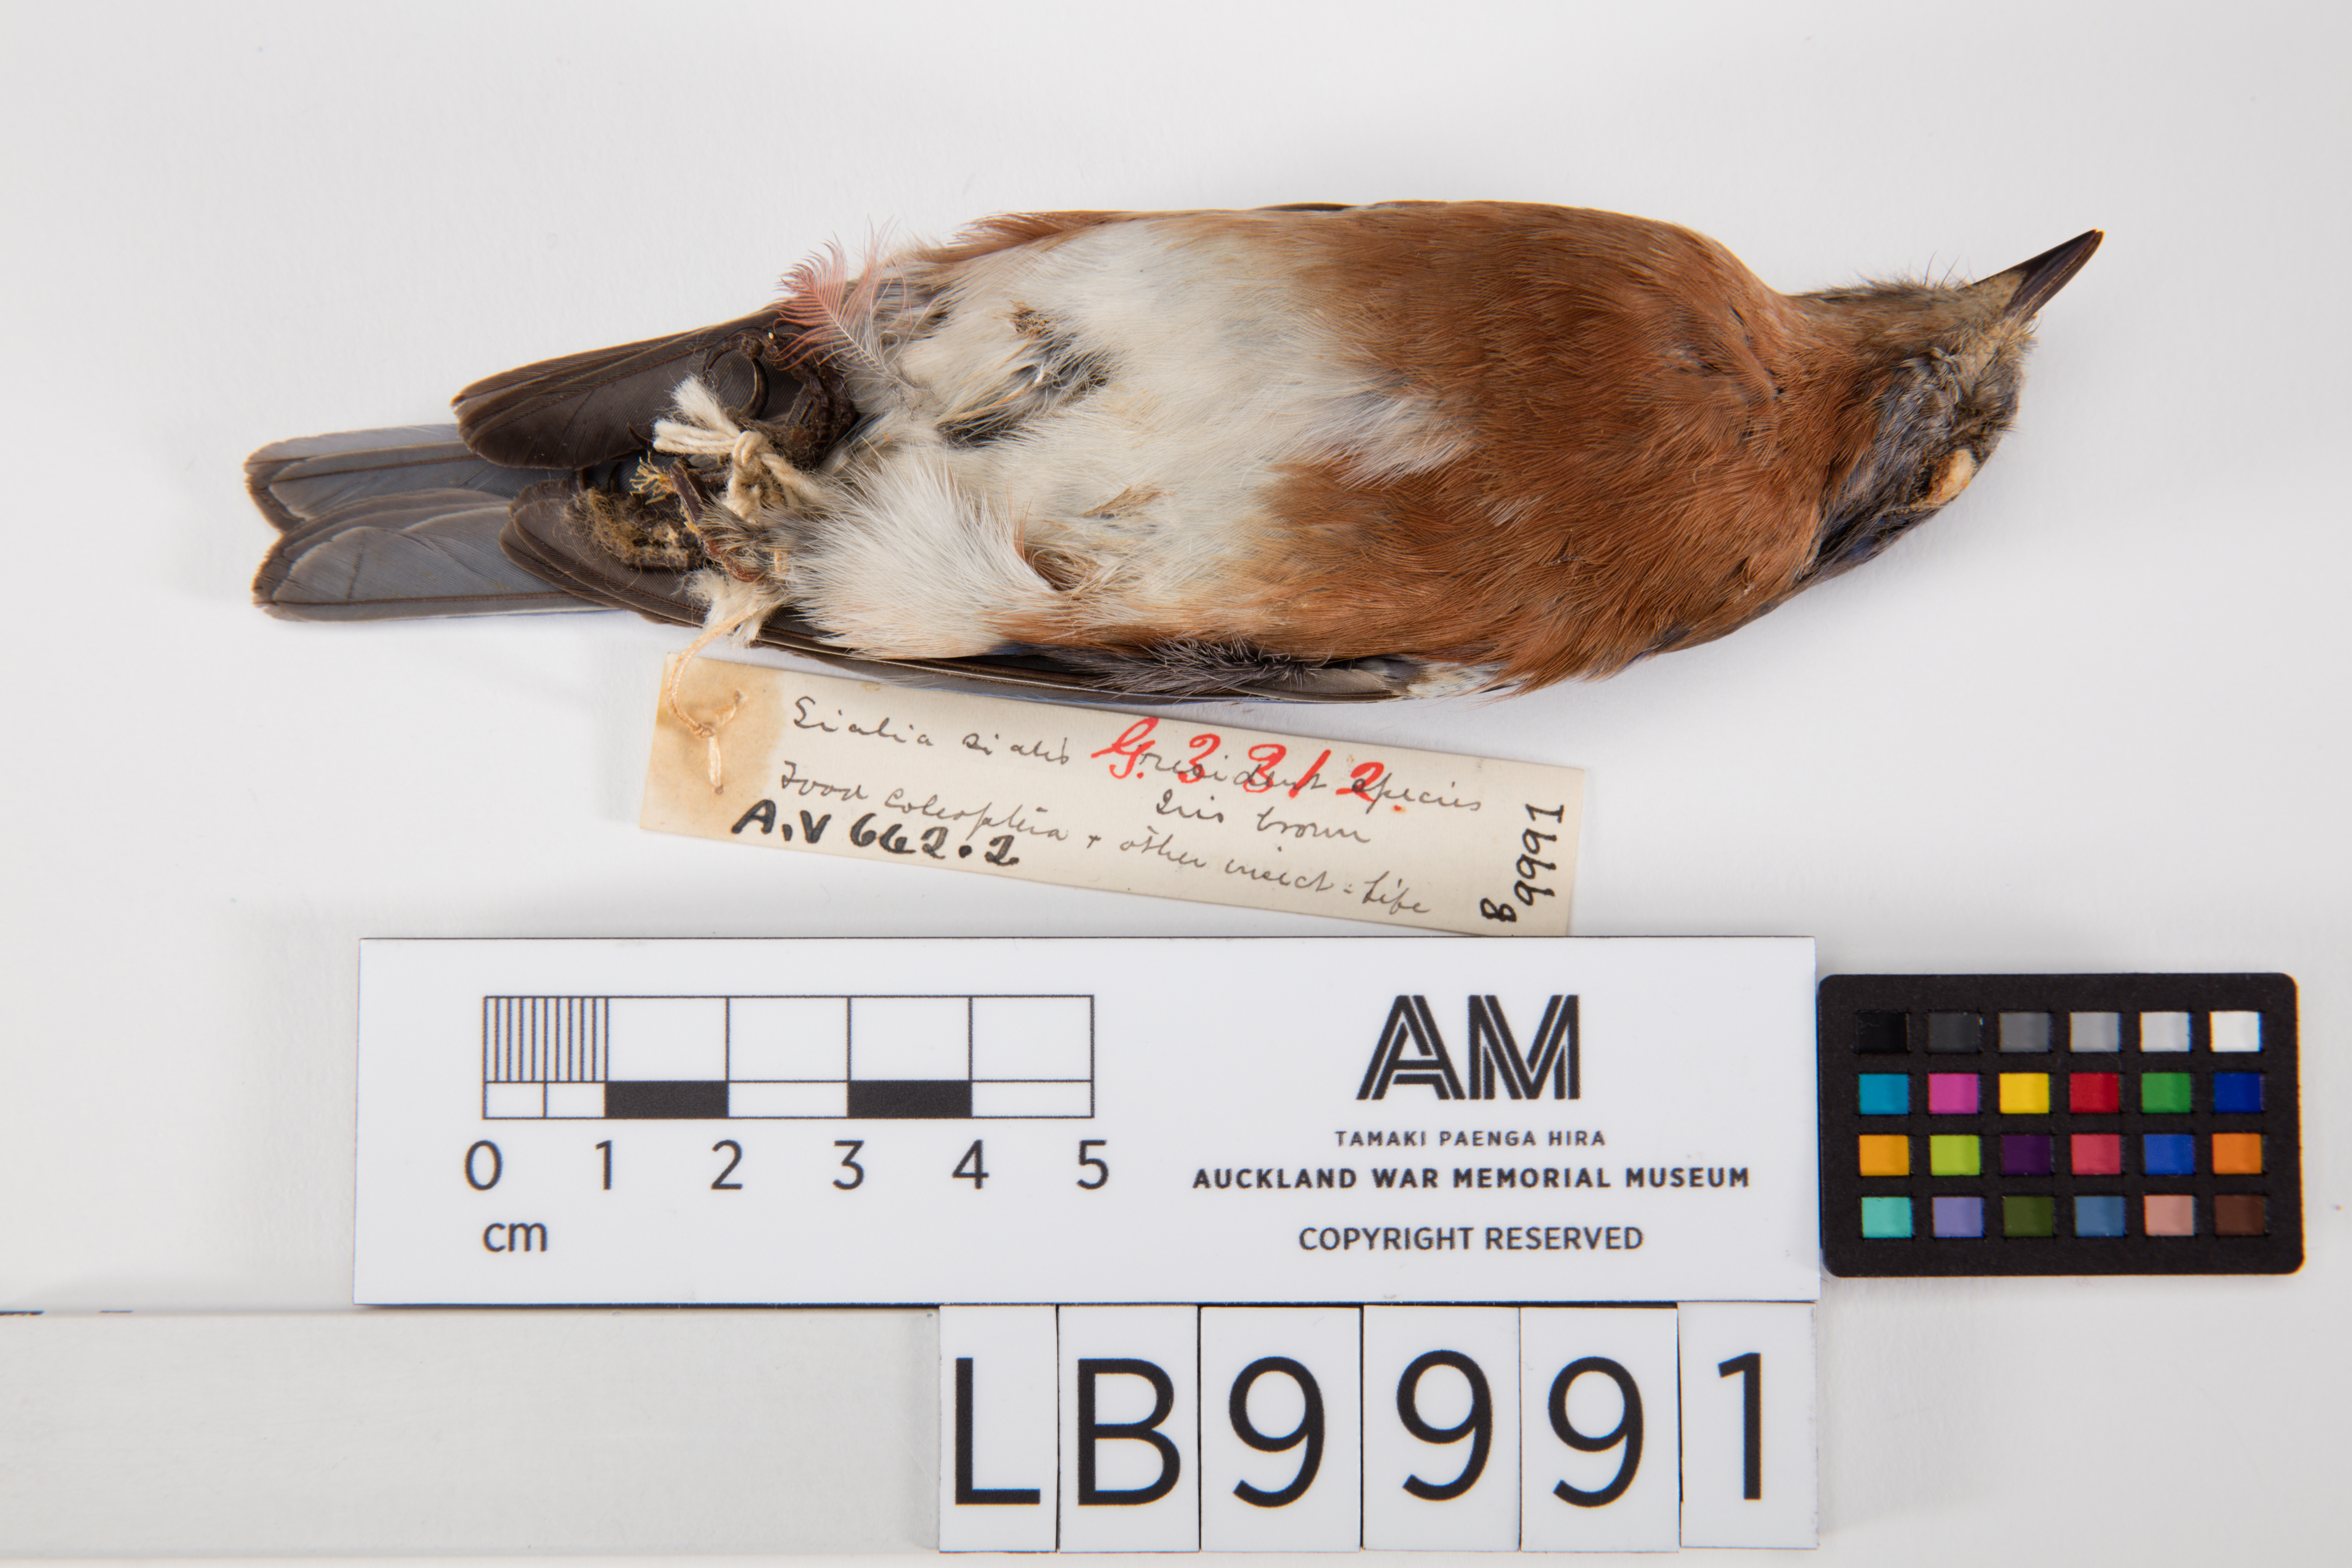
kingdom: Animalia
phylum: Chordata
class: Aves
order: Passeriformes
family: Turdidae
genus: Sialia
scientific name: Sialia sialis
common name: Eastern bluebird
